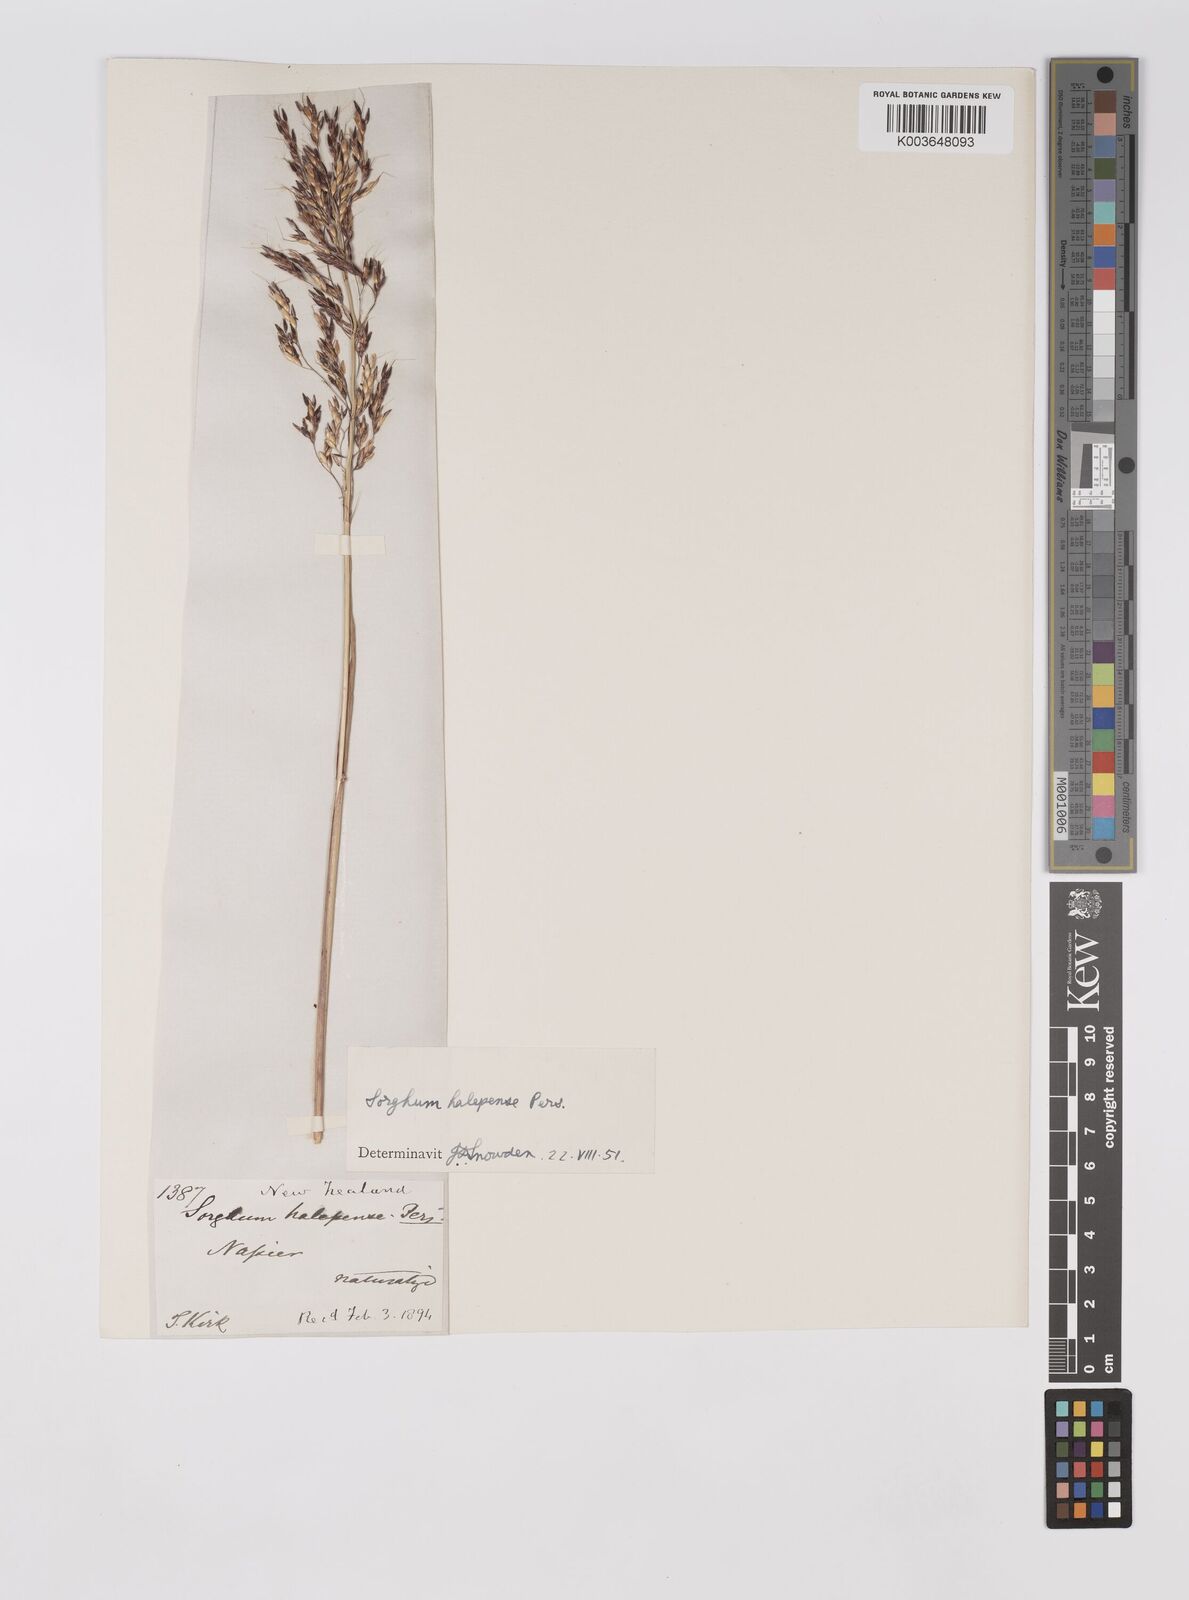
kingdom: Plantae
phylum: Tracheophyta
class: Liliopsida
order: Poales
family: Poaceae
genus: Sorghum
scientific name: Sorghum halepense
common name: Johnson-grass
